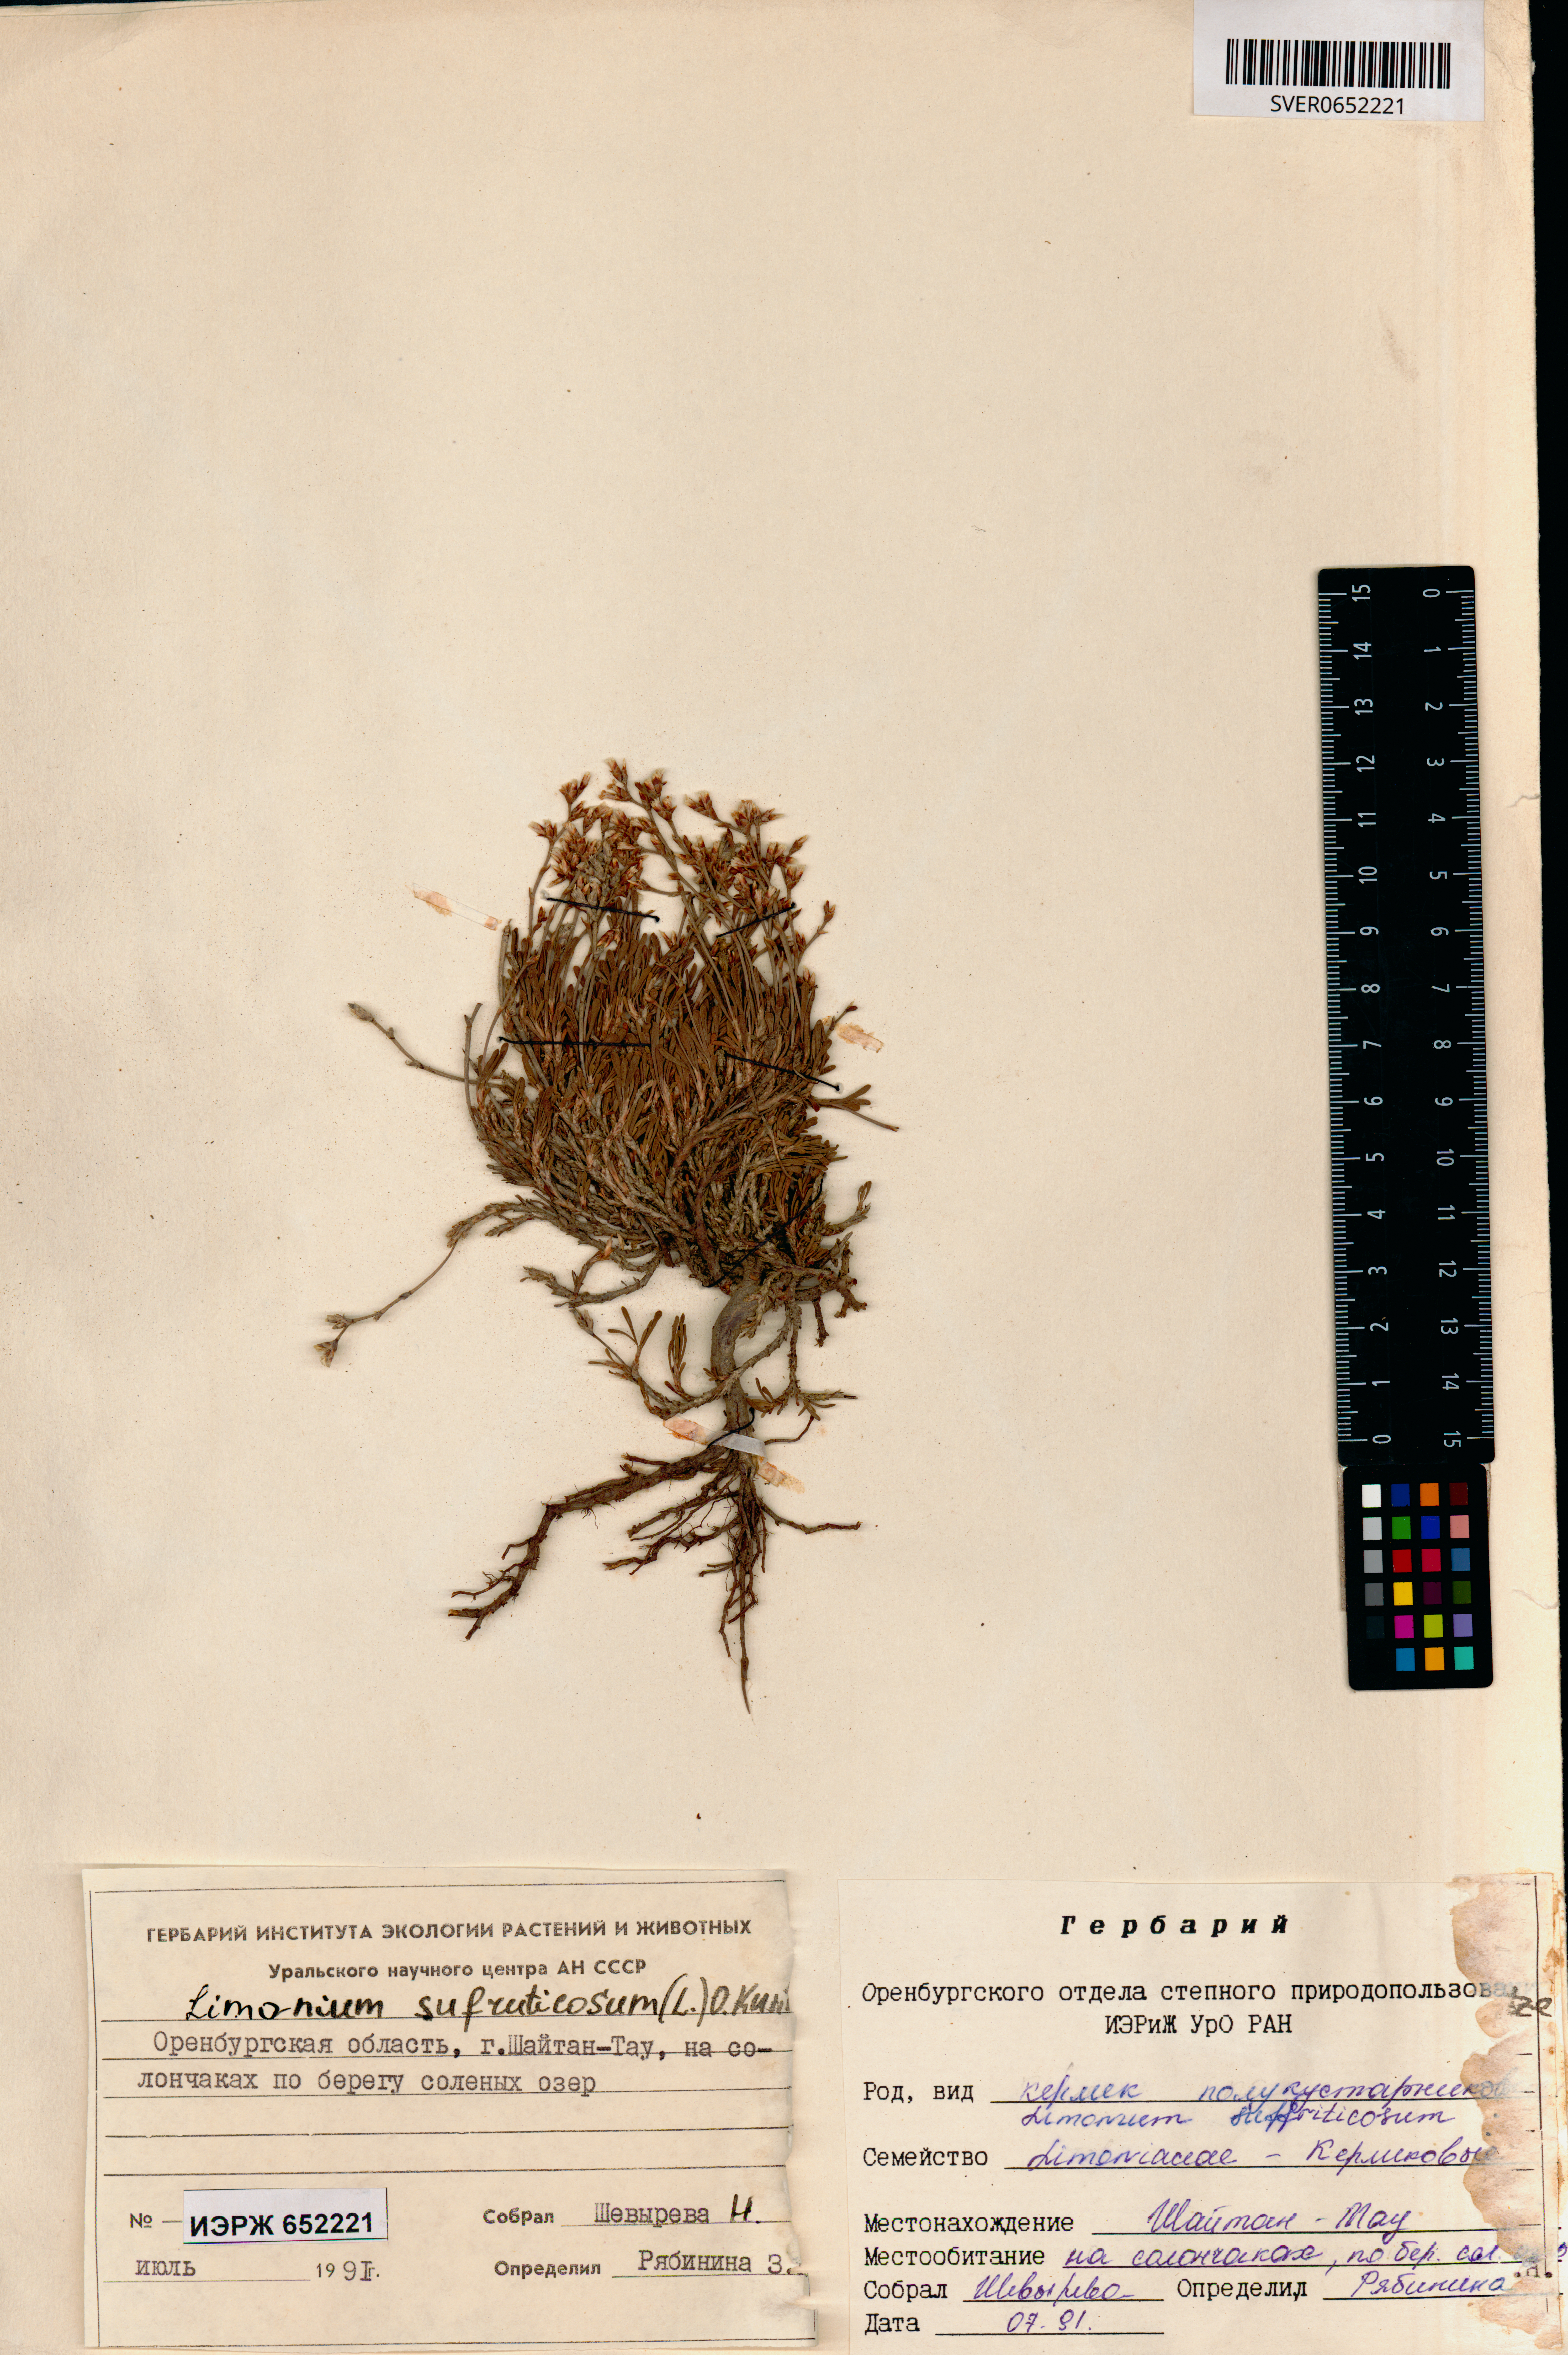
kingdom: Plantae
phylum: Tracheophyta
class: Magnoliopsida
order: Caryophyllales
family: Plumbaginaceae
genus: Limonium
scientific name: Limonium suffruticosum
